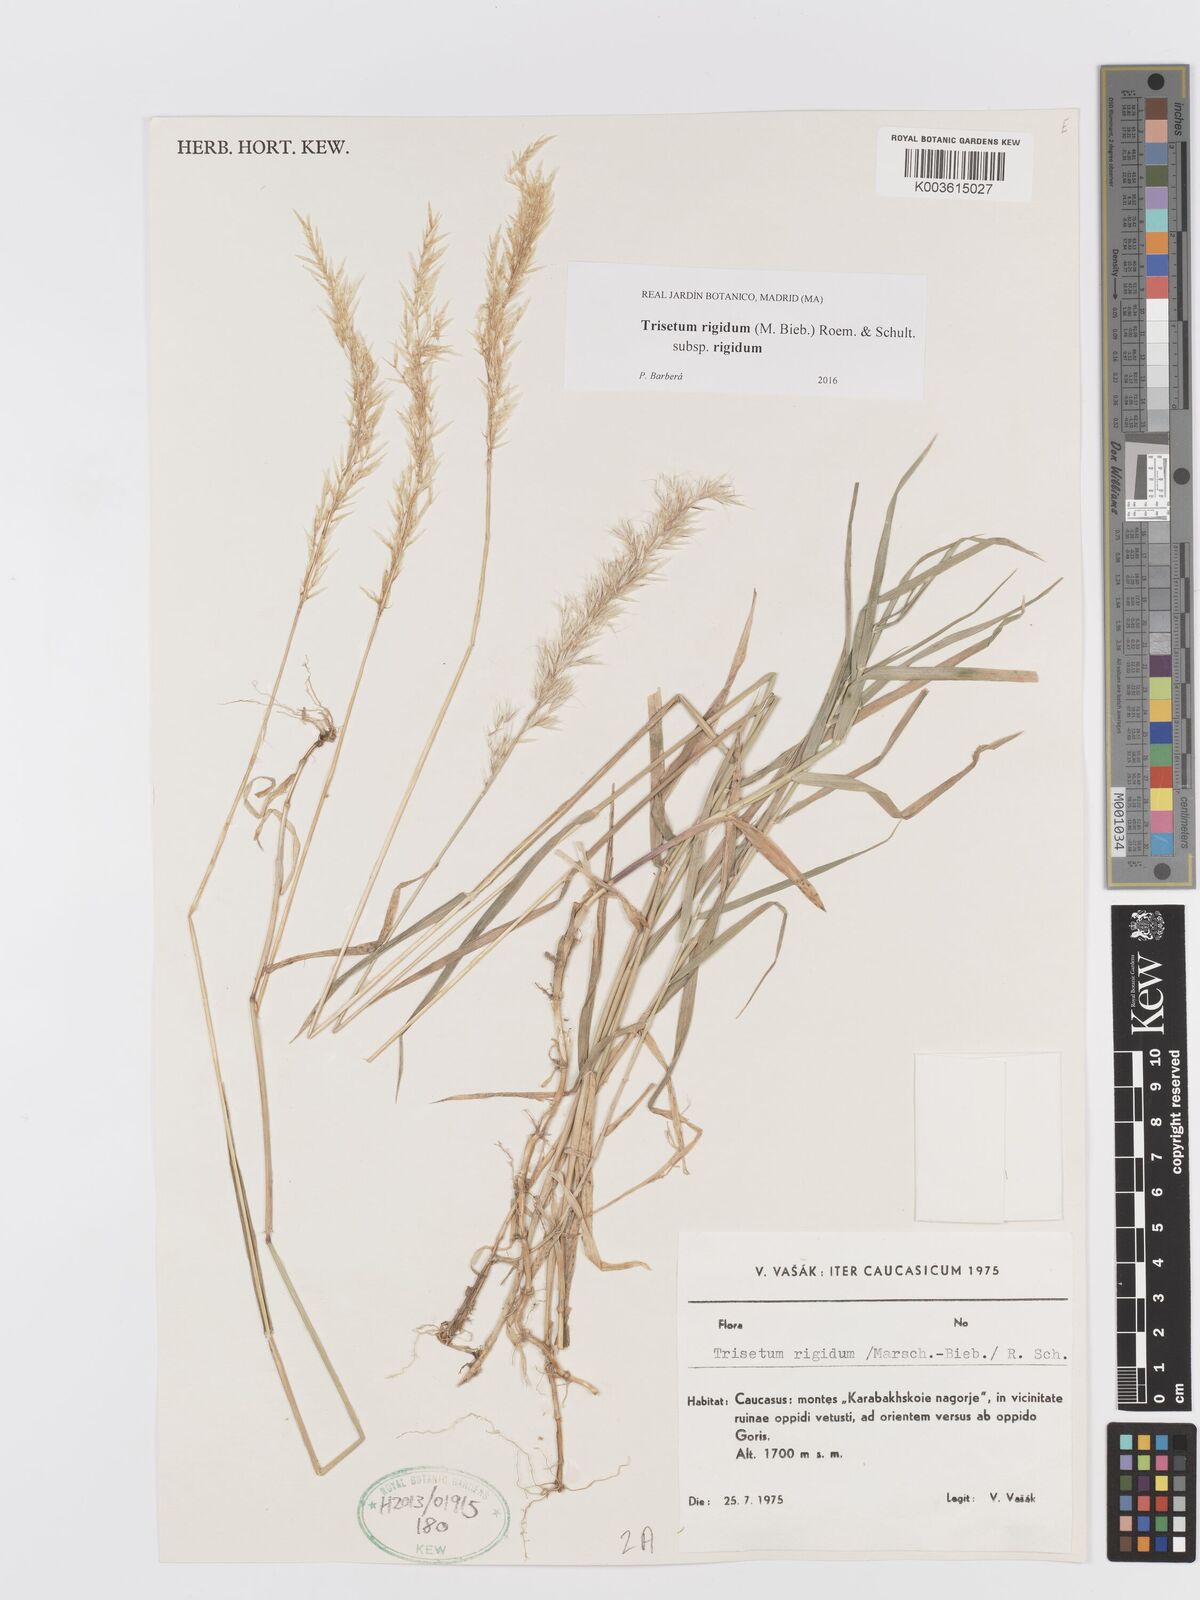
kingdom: Plantae
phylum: Tracheophyta
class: Liliopsida
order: Poales
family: Poaceae
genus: Trisetum
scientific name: Trisetum rigidum
